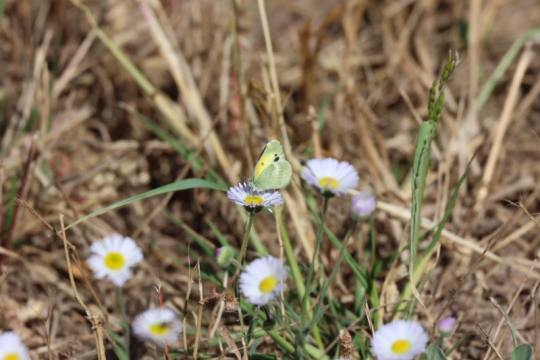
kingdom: Animalia
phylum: Arthropoda
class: Insecta
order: Lepidoptera
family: Pieridae
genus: Nathalis
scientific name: Nathalis iole
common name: Dainty Sulphur
